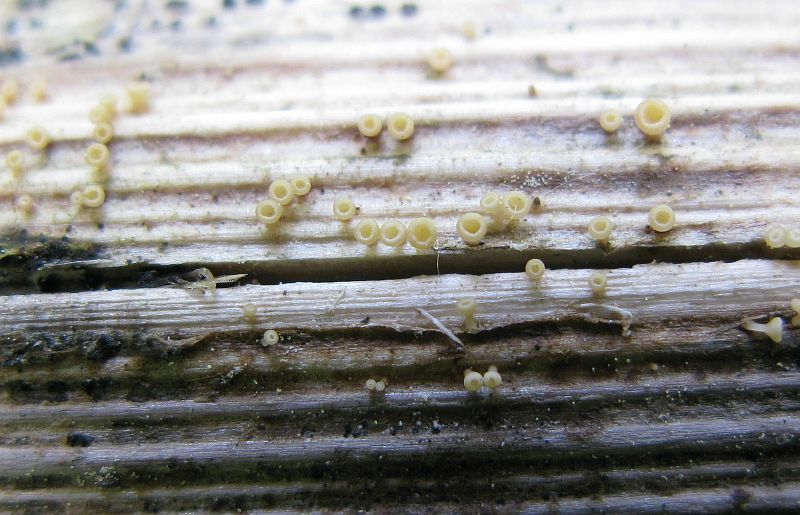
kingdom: Fungi
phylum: Ascomycota
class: Leotiomycetes
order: Helotiales
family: Helotiaceae
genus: Cyathicula
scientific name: Cyathicula cyathoidea
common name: pokal-stilkskive
